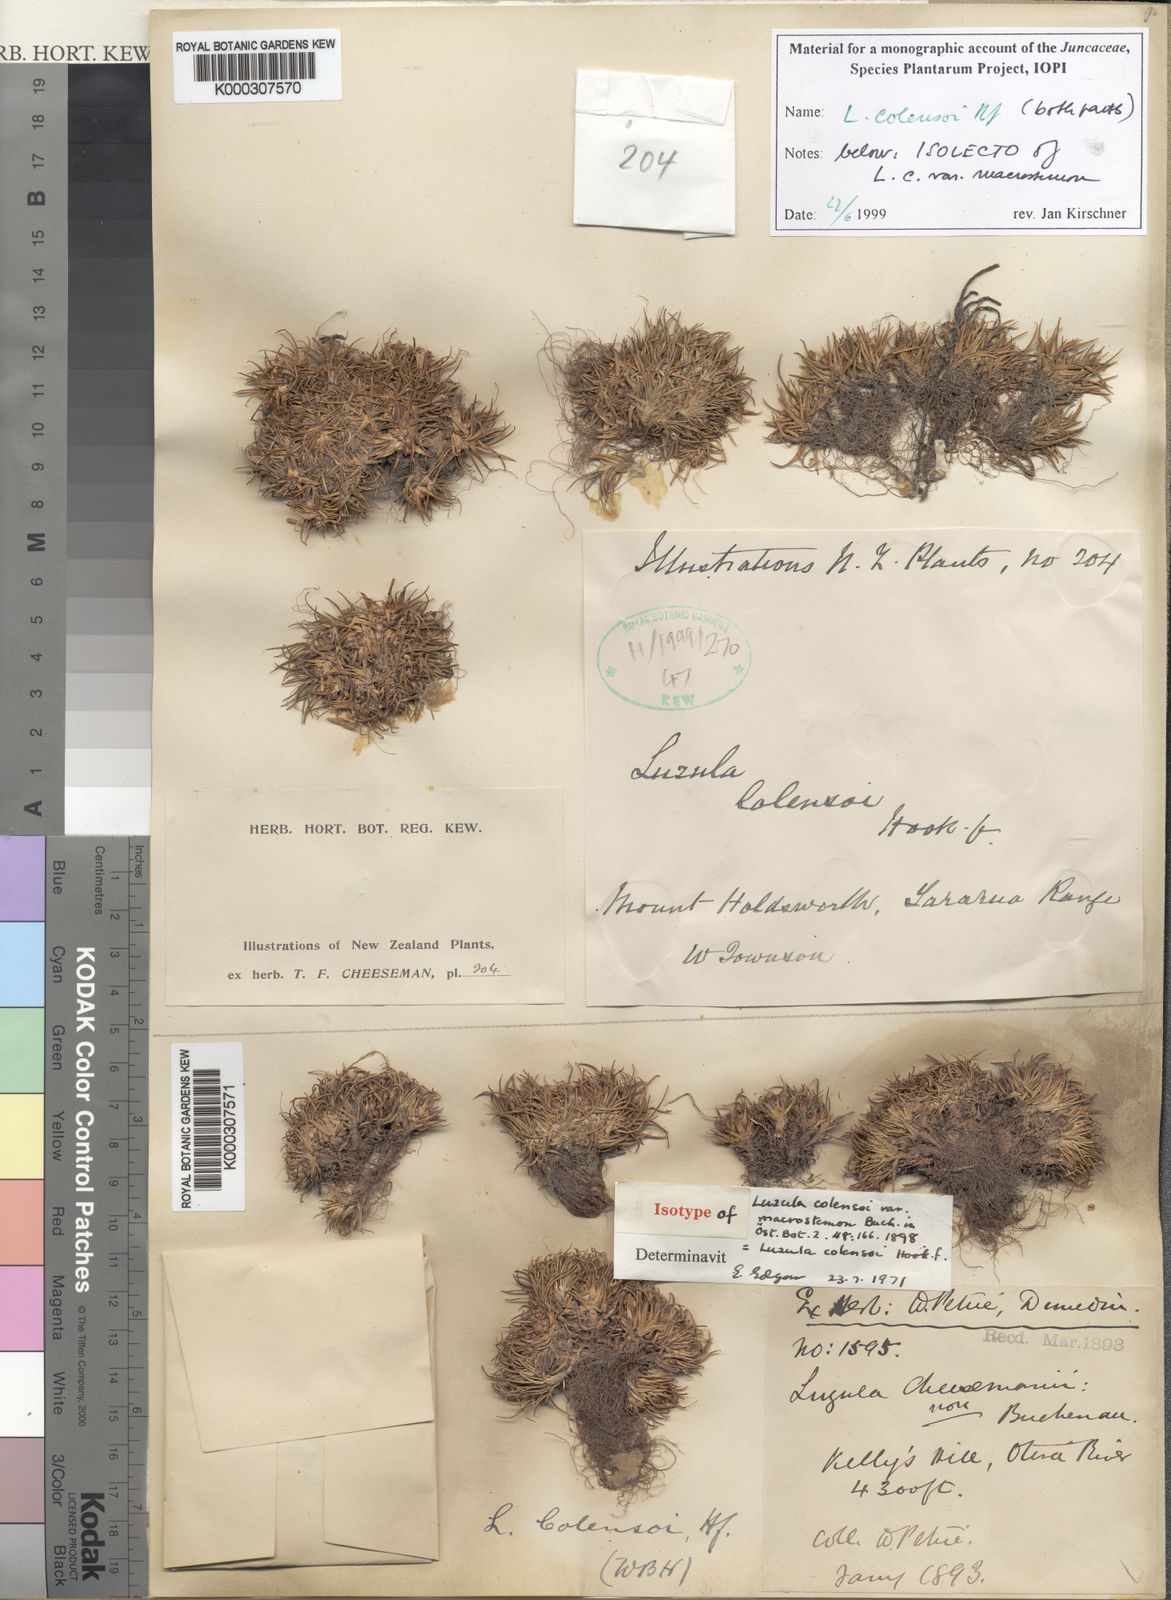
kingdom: Plantae
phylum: Tracheophyta
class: Liliopsida
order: Poales
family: Juncaceae
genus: Luzula
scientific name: Luzula colensoi
